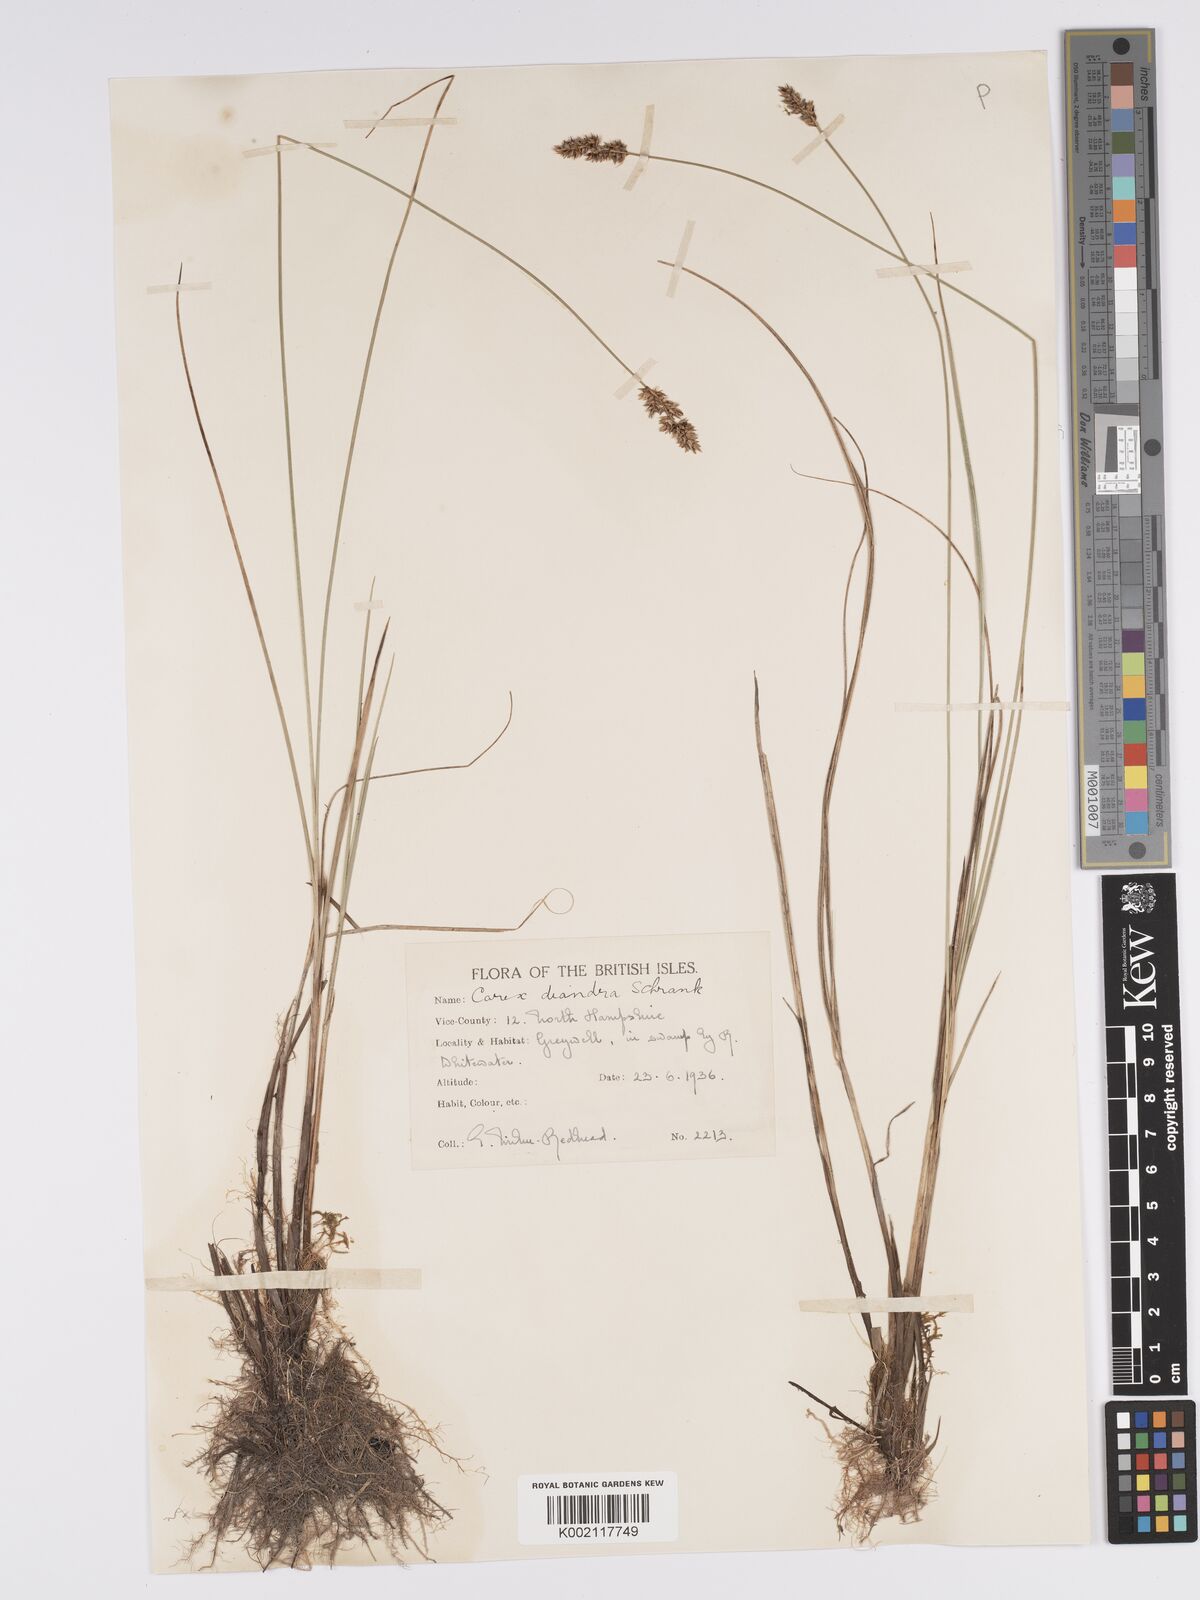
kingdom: Plantae
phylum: Tracheophyta
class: Liliopsida
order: Poales
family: Cyperaceae
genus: Carex
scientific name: Carex diandra
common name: Lesser tussock-sedge
